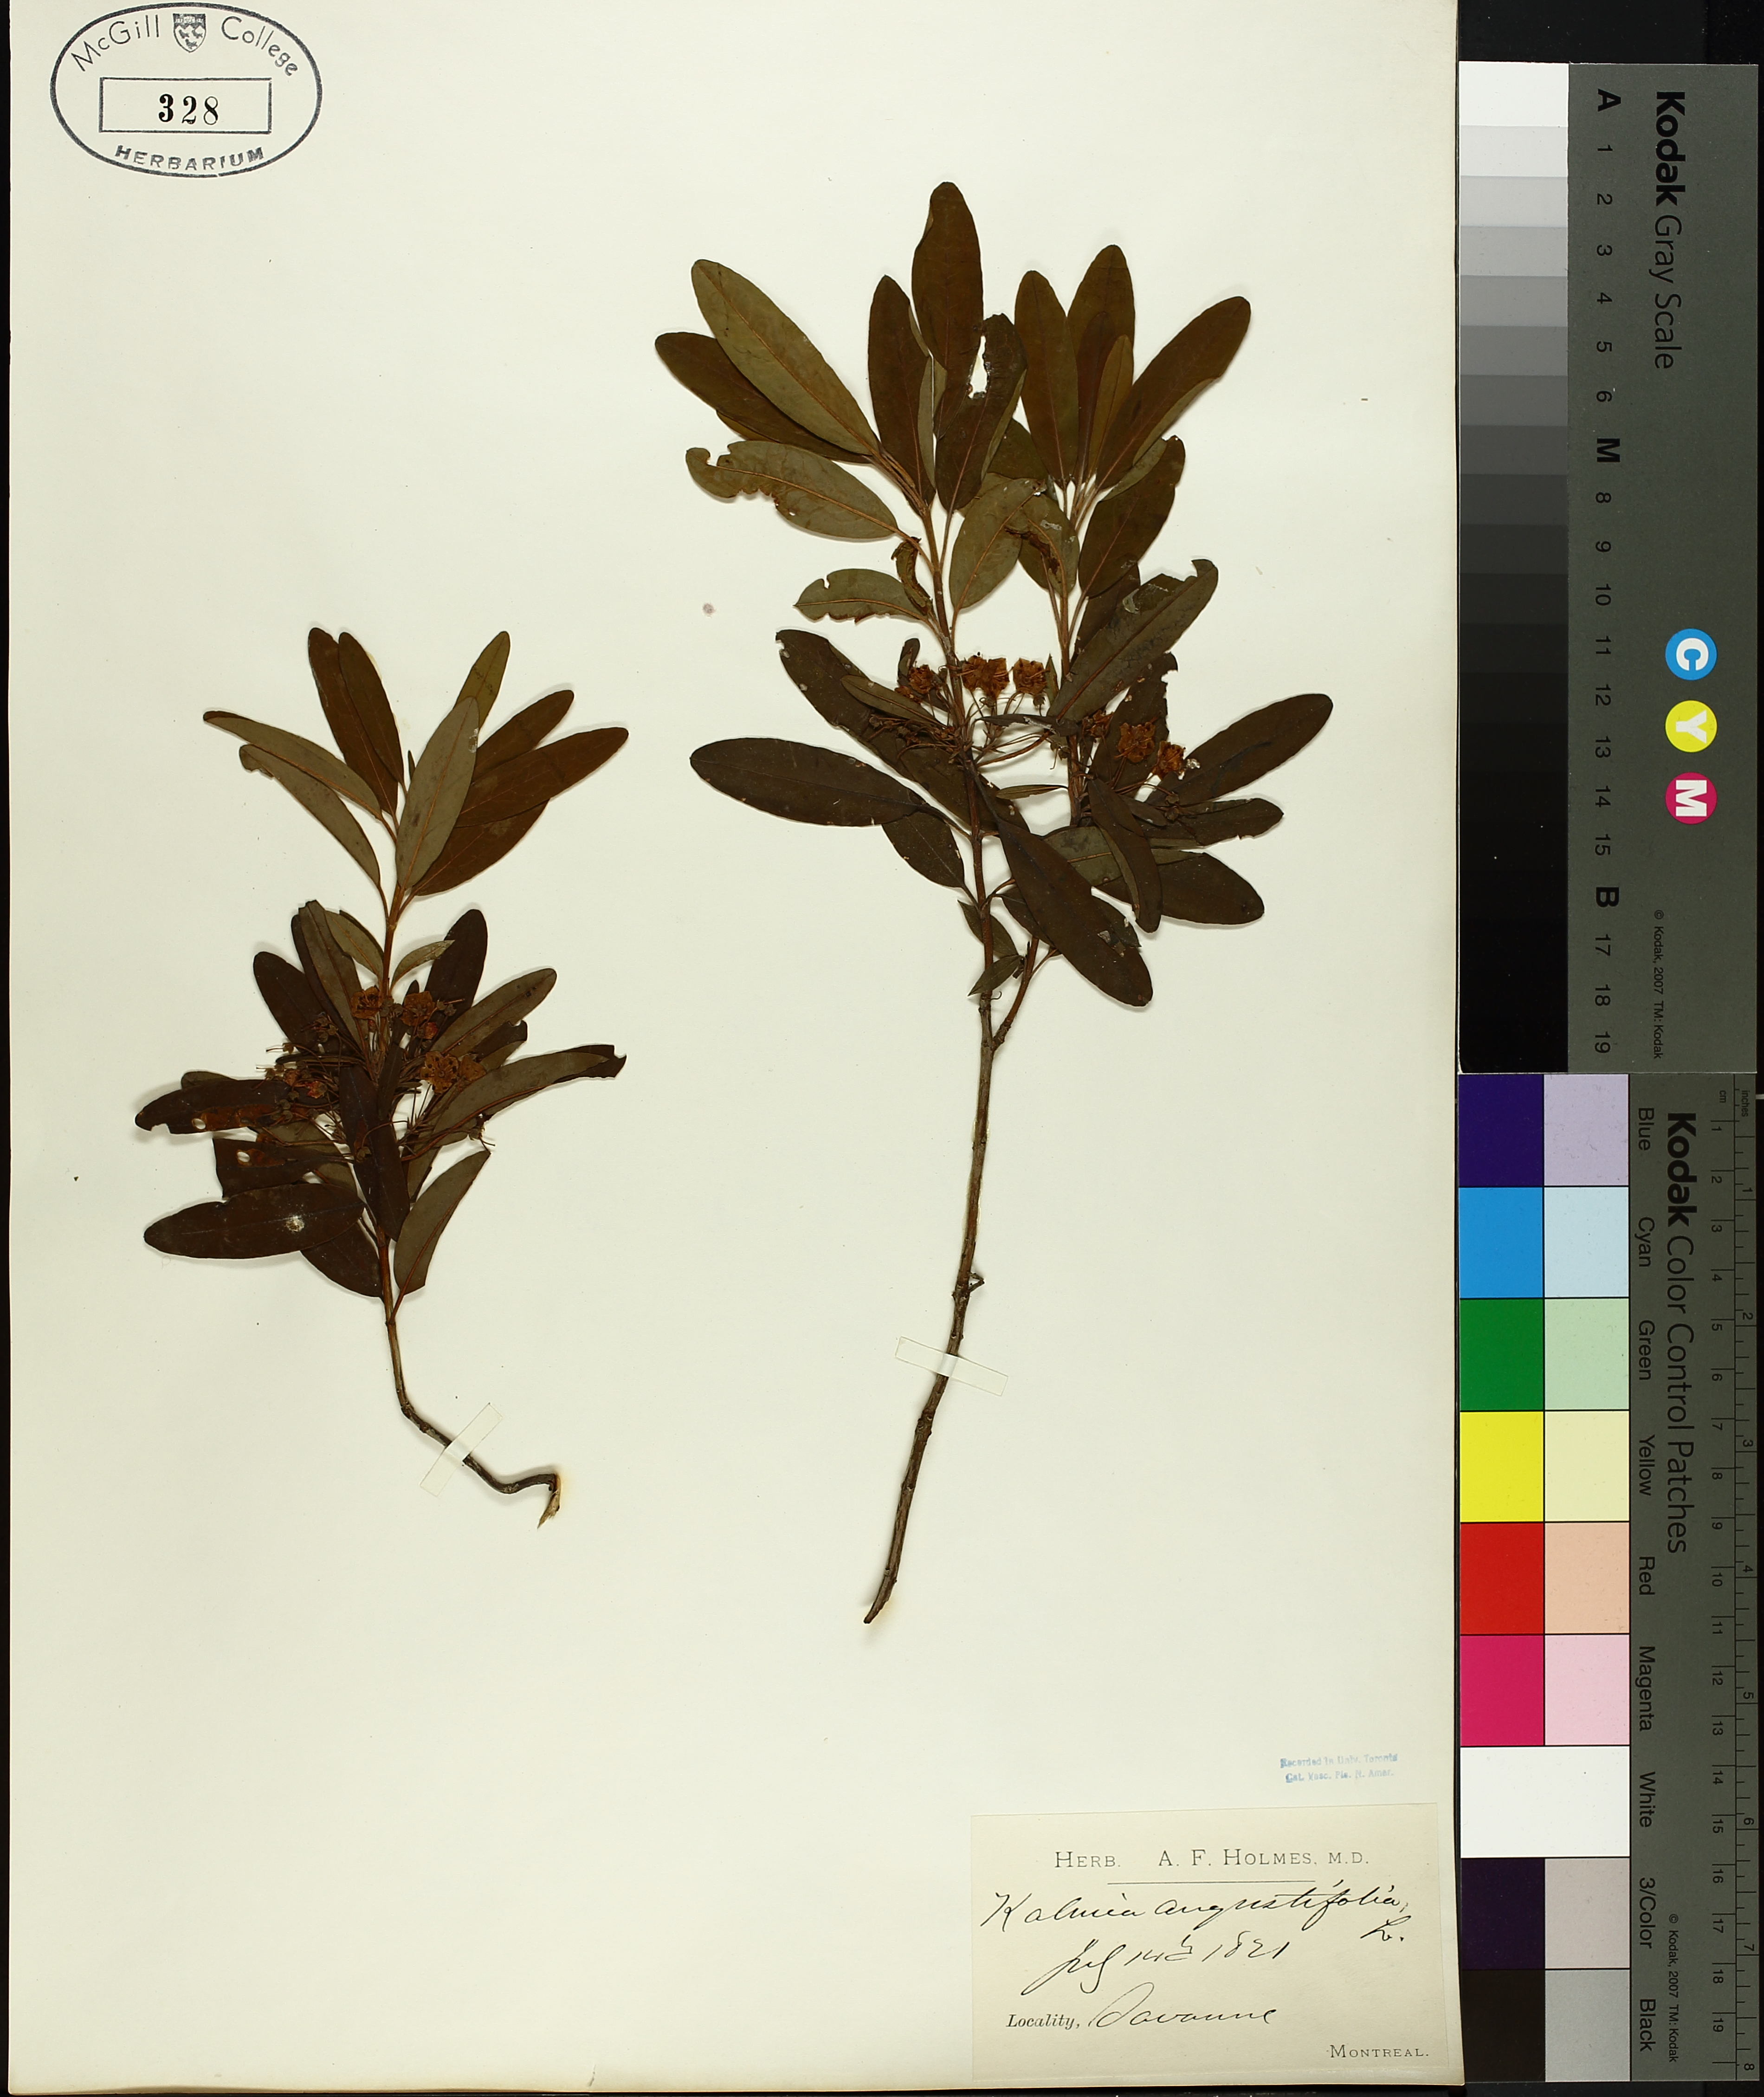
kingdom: Plantae
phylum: Tracheophyta
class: Magnoliopsida
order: Ericales
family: Ericaceae
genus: Kalmia
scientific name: Kalmia angustifolia
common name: Sheep-laurel
